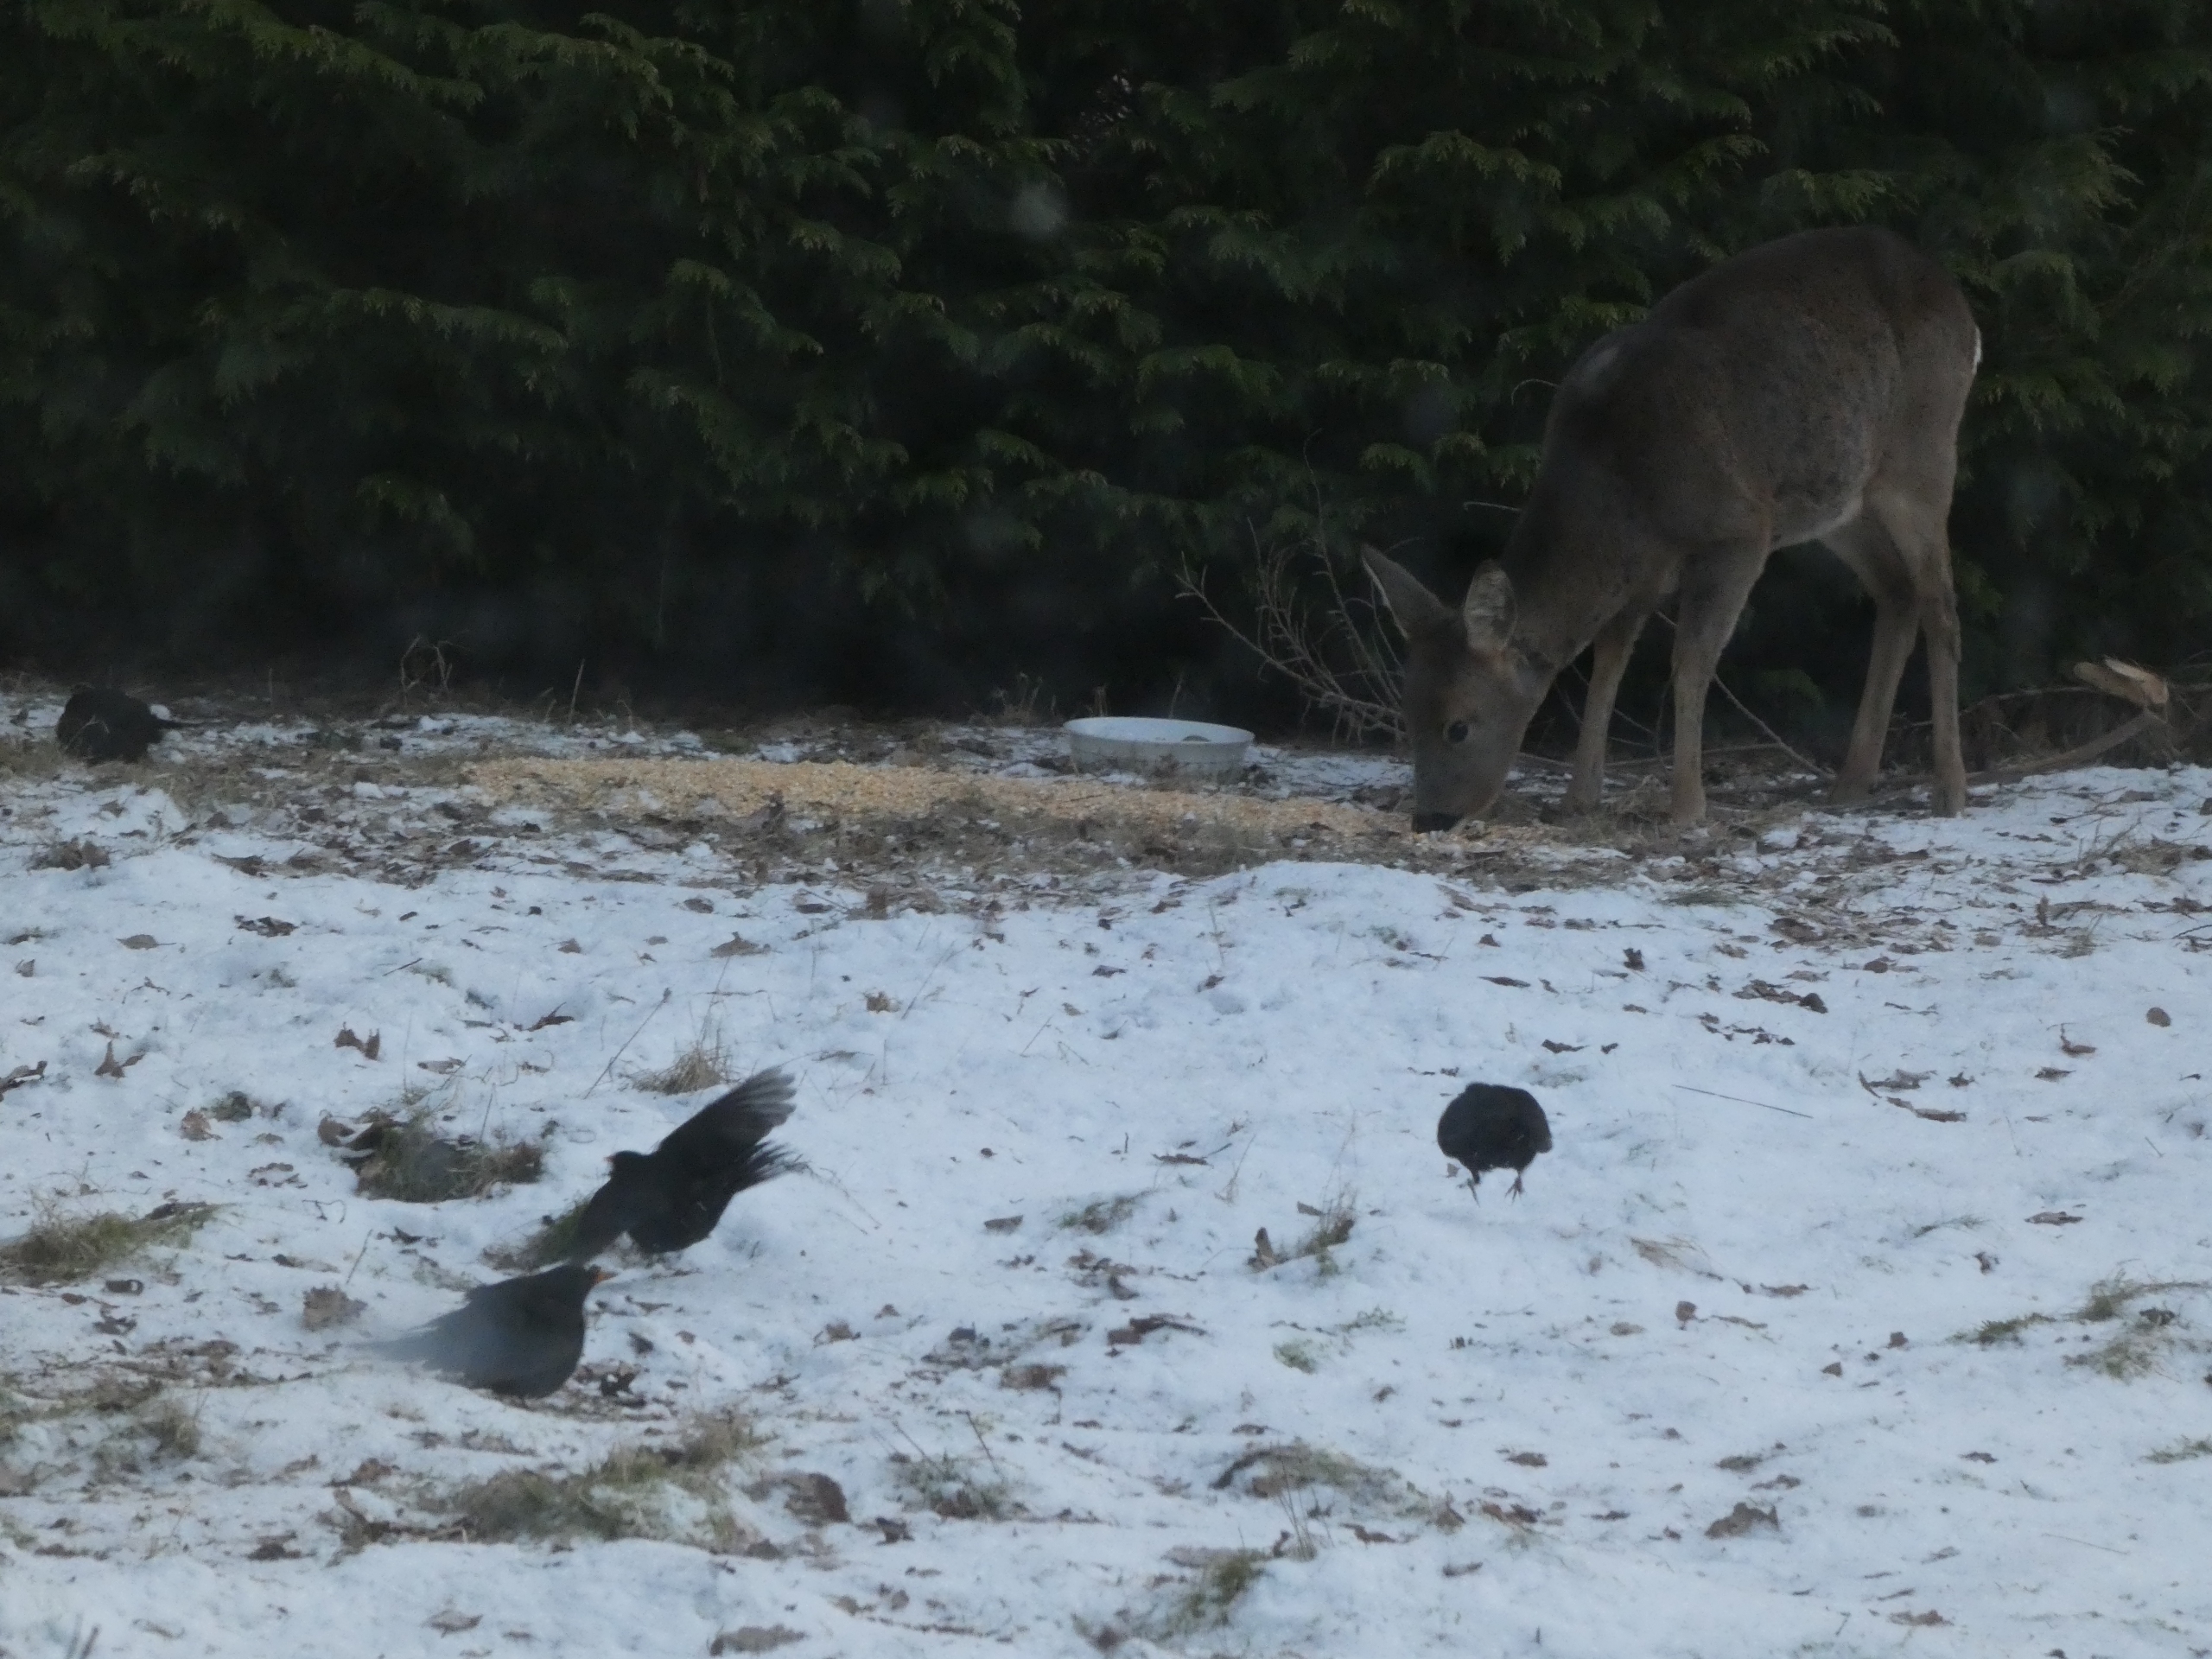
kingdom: Animalia
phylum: Chordata
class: Mammalia
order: Artiodactyla
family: Cervidae
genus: Capreolus
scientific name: Capreolus capreolus
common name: Rådyr
